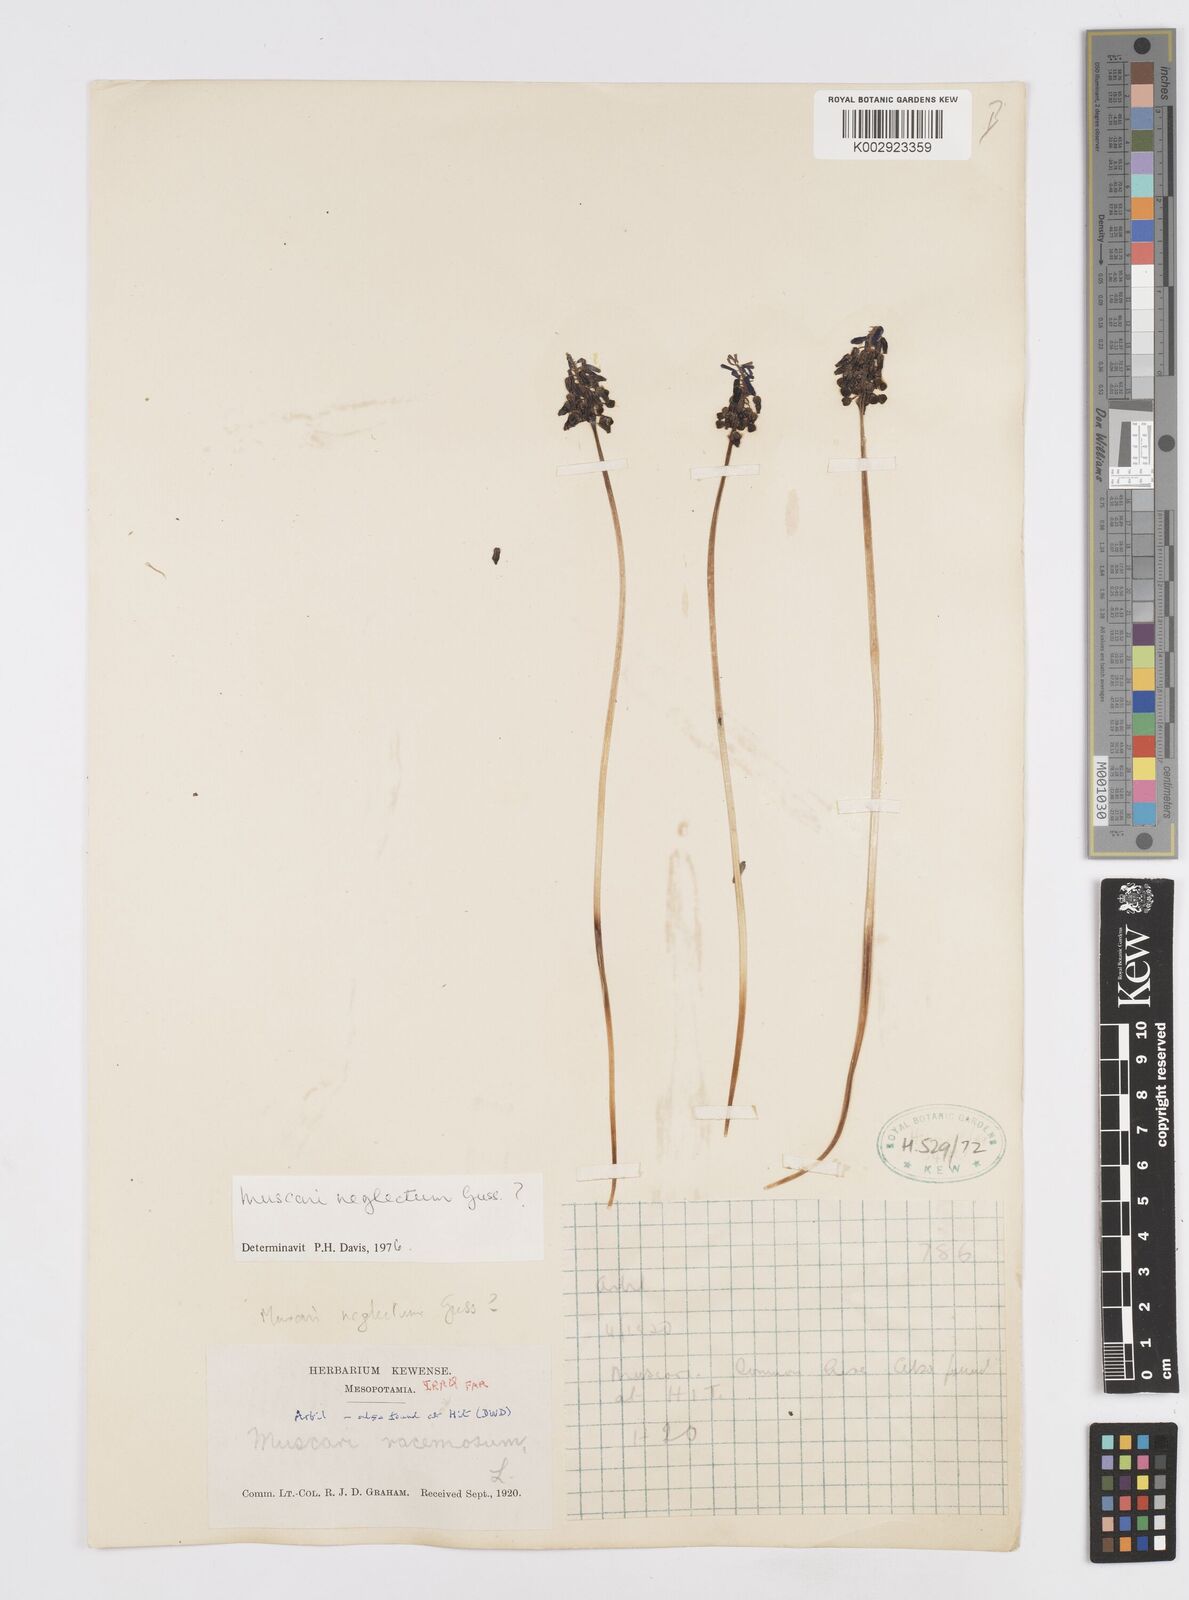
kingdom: Plantae
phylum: Tracheophyta
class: Liliopsida
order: Asparagales
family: Asparagaceae
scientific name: Asparagaceae
